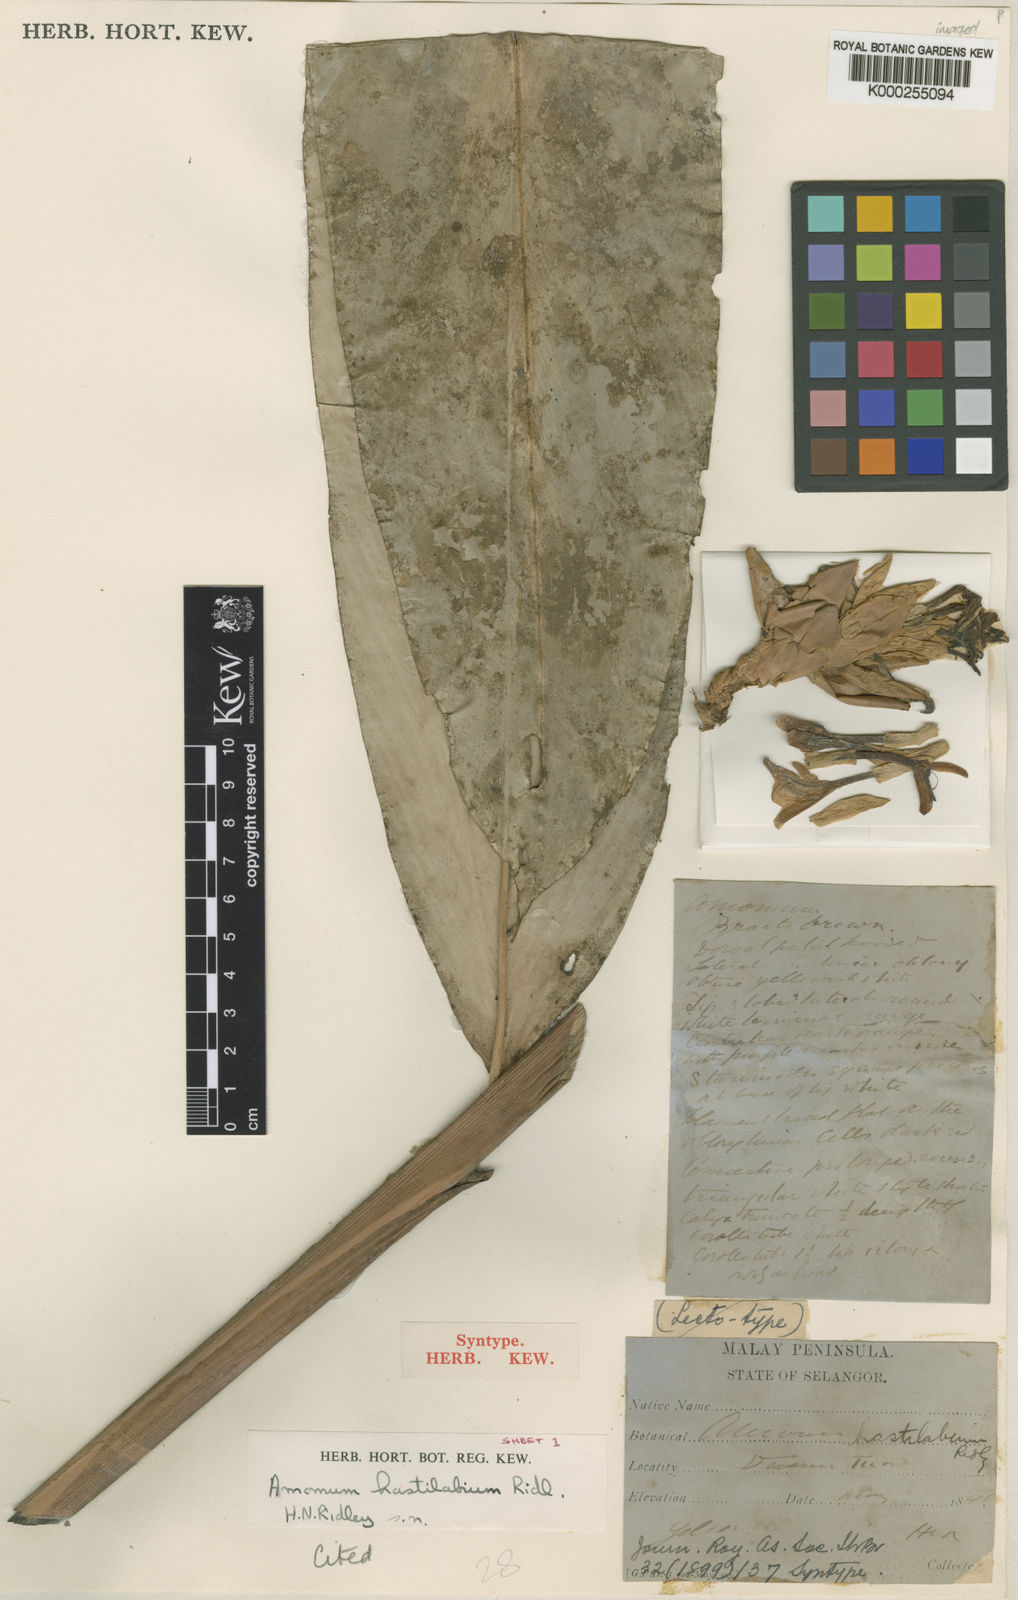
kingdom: Plantae
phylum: Tracheophyta
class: Liliopsida
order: Zingiberales
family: Zingiberaceae
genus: Sundamomum
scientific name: Sundamomum hastilabium
